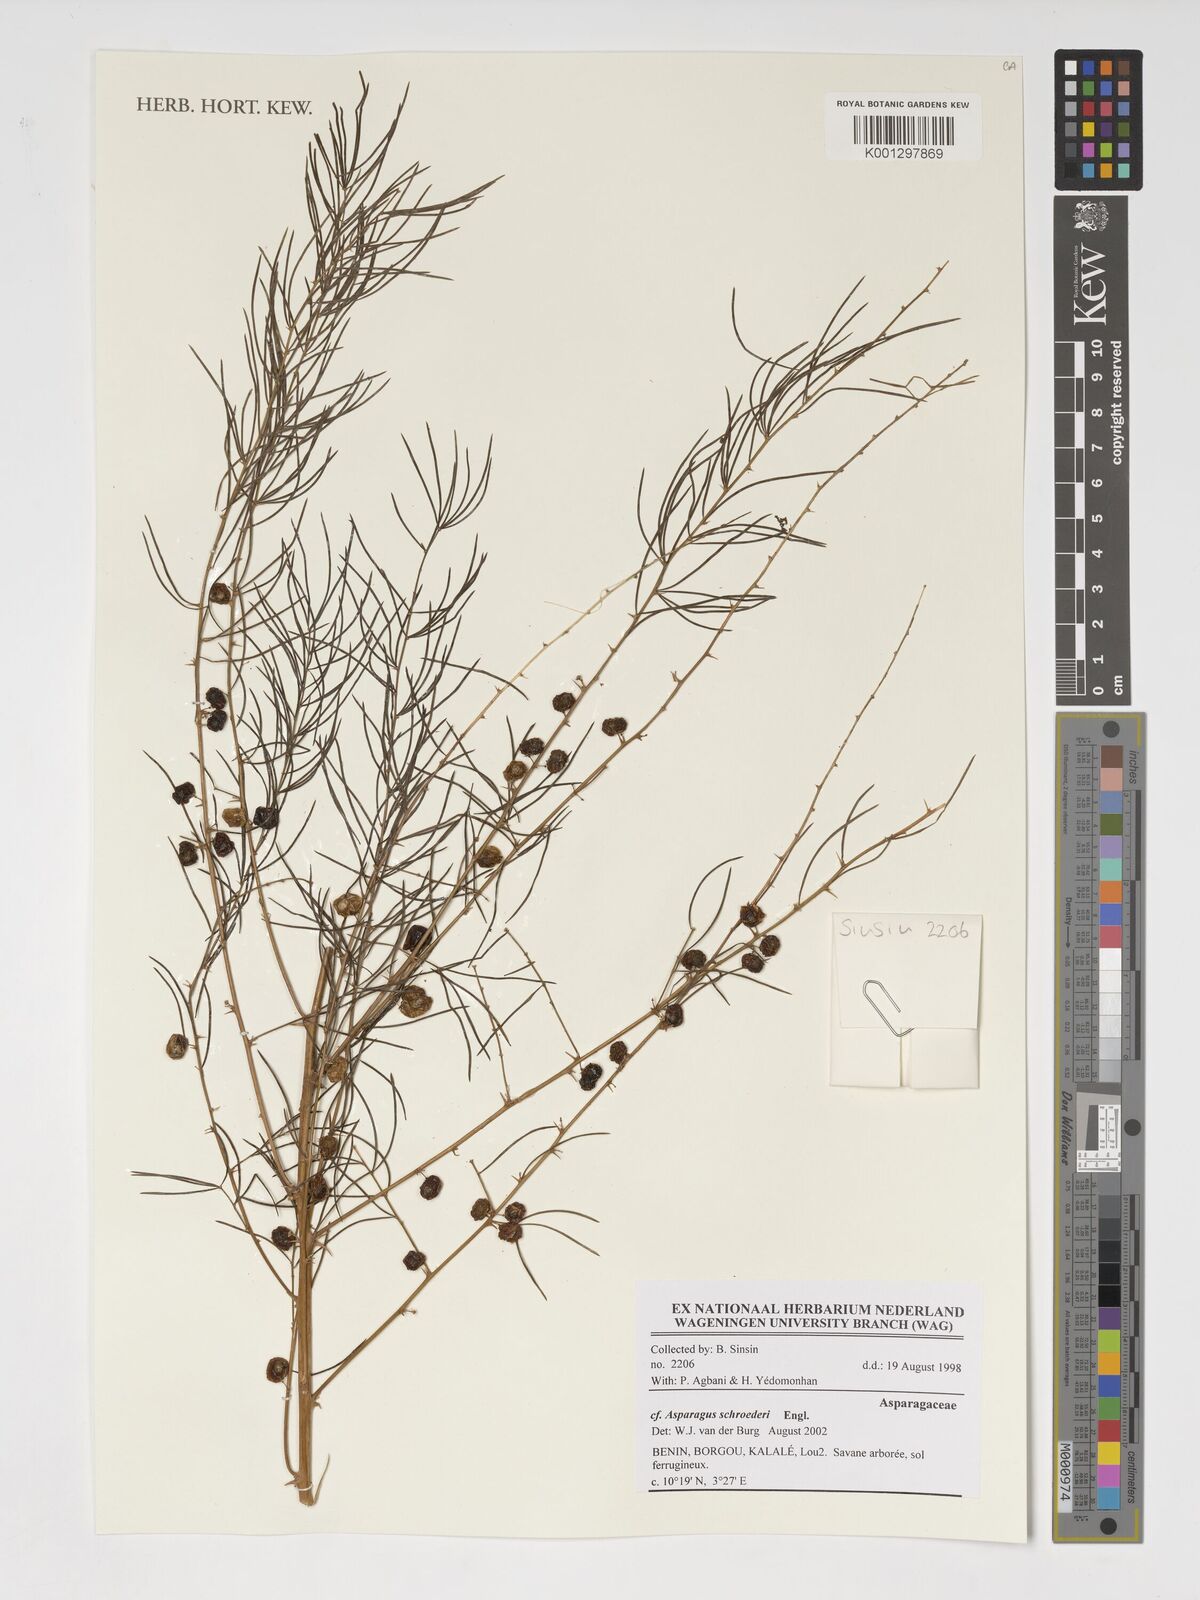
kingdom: Plantae
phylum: Tracheophyta
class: Liliopsida
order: Asparagales
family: Asparagaceae
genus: Asparagus
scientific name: Asparagus schroederi
